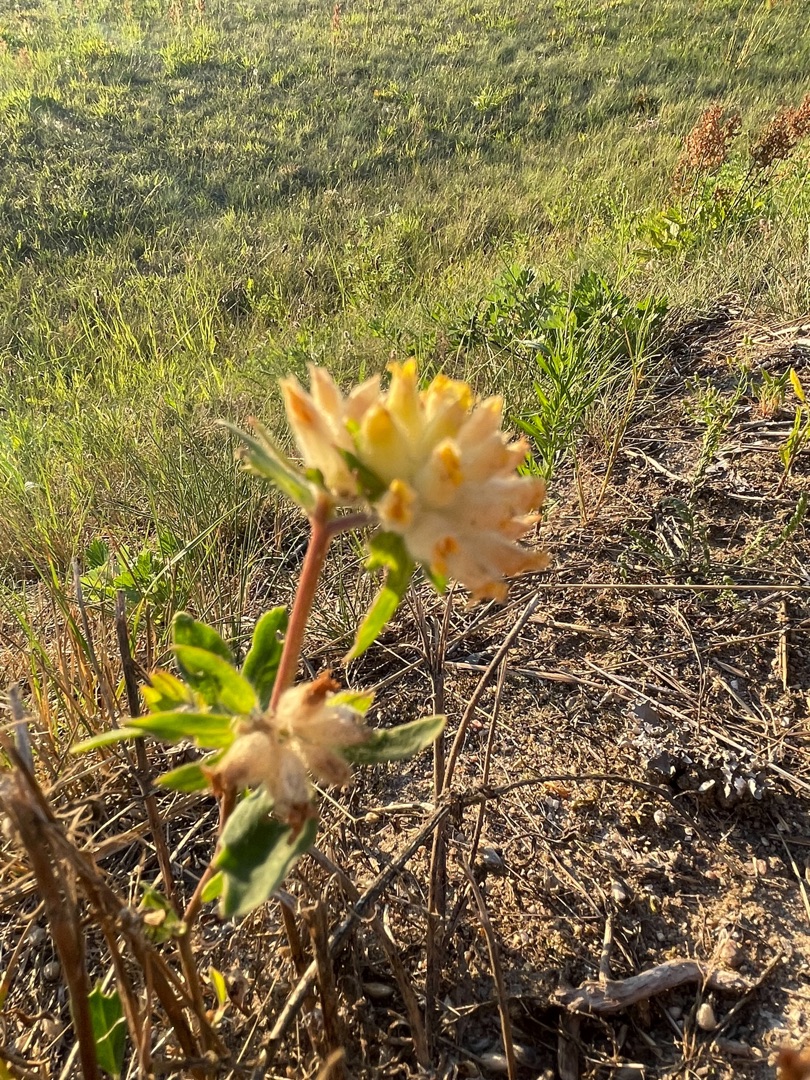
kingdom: Plantae
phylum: Tracheophyta
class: Magnoliopsida
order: Fabales
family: Fabaceae
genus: Anthyllis
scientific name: Anthyllis vulneraria
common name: Rundbælg
